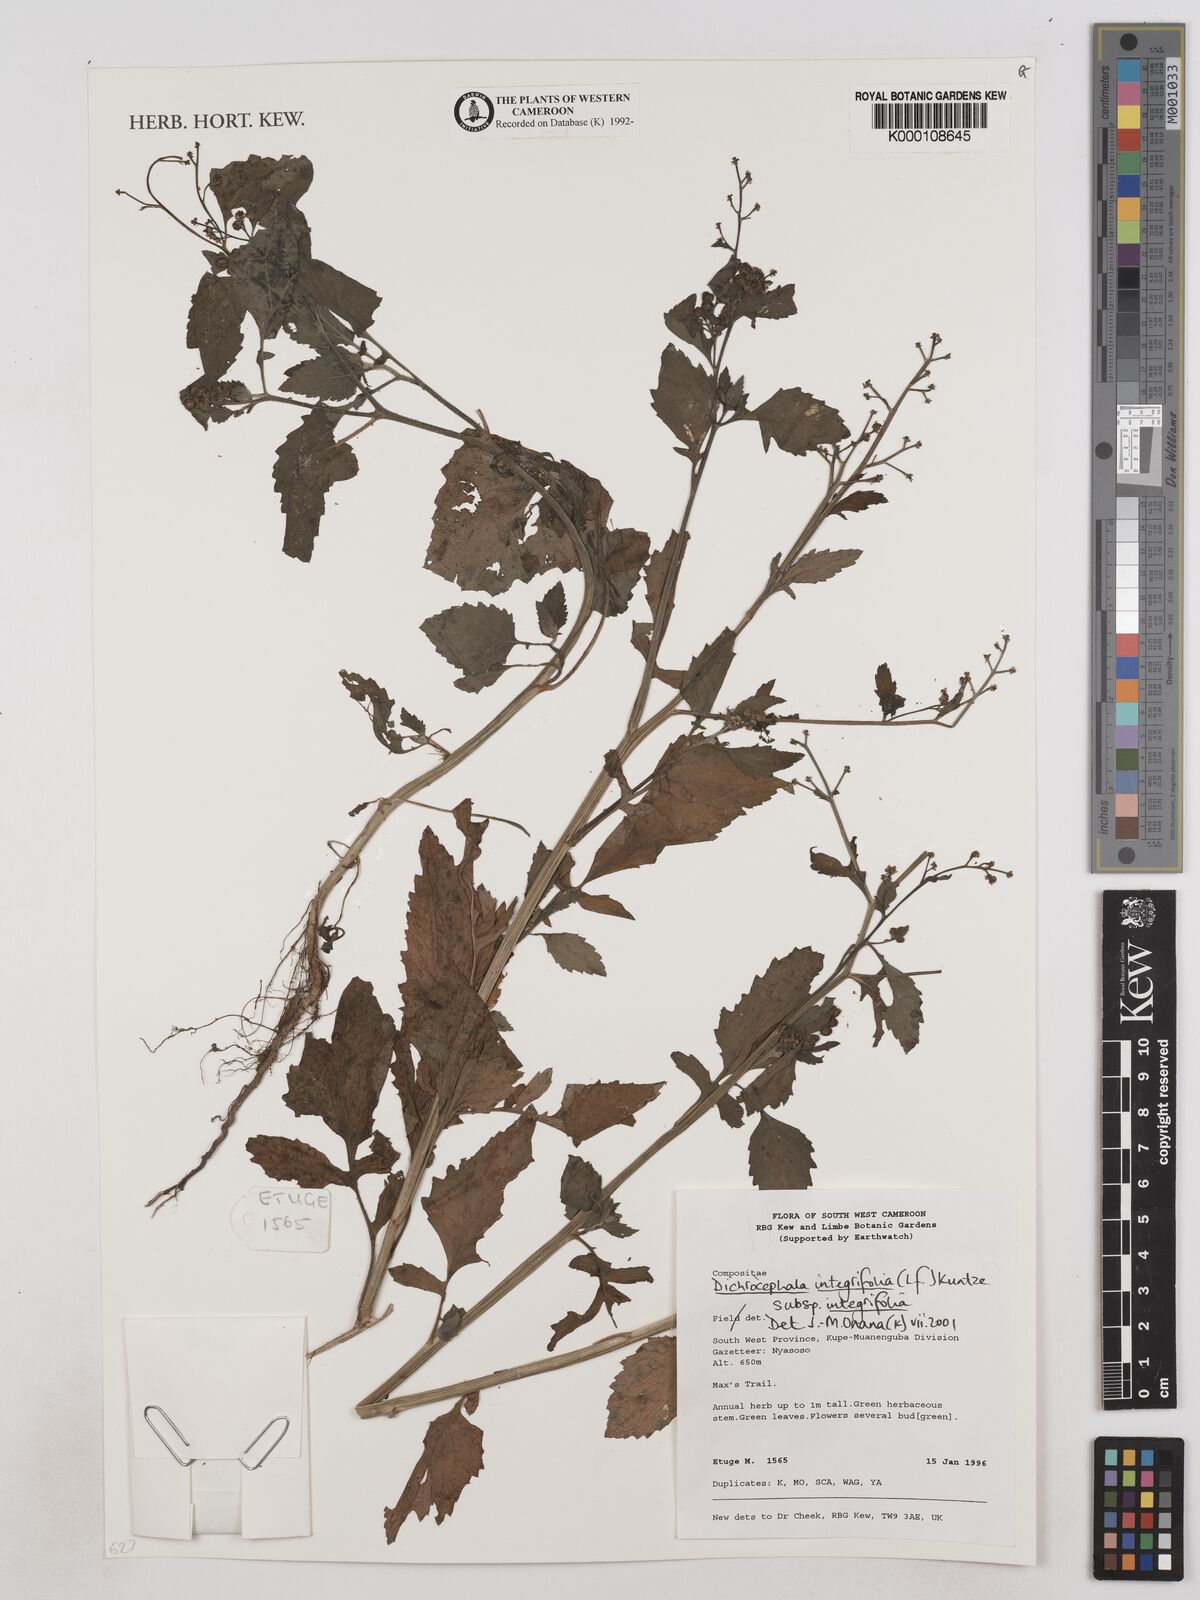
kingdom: Plantae
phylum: Tracheophyta
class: Magnoliopsida
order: Asterales
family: Asteraceae
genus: Dichrocephala
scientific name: Dichrocephala integrifolia
